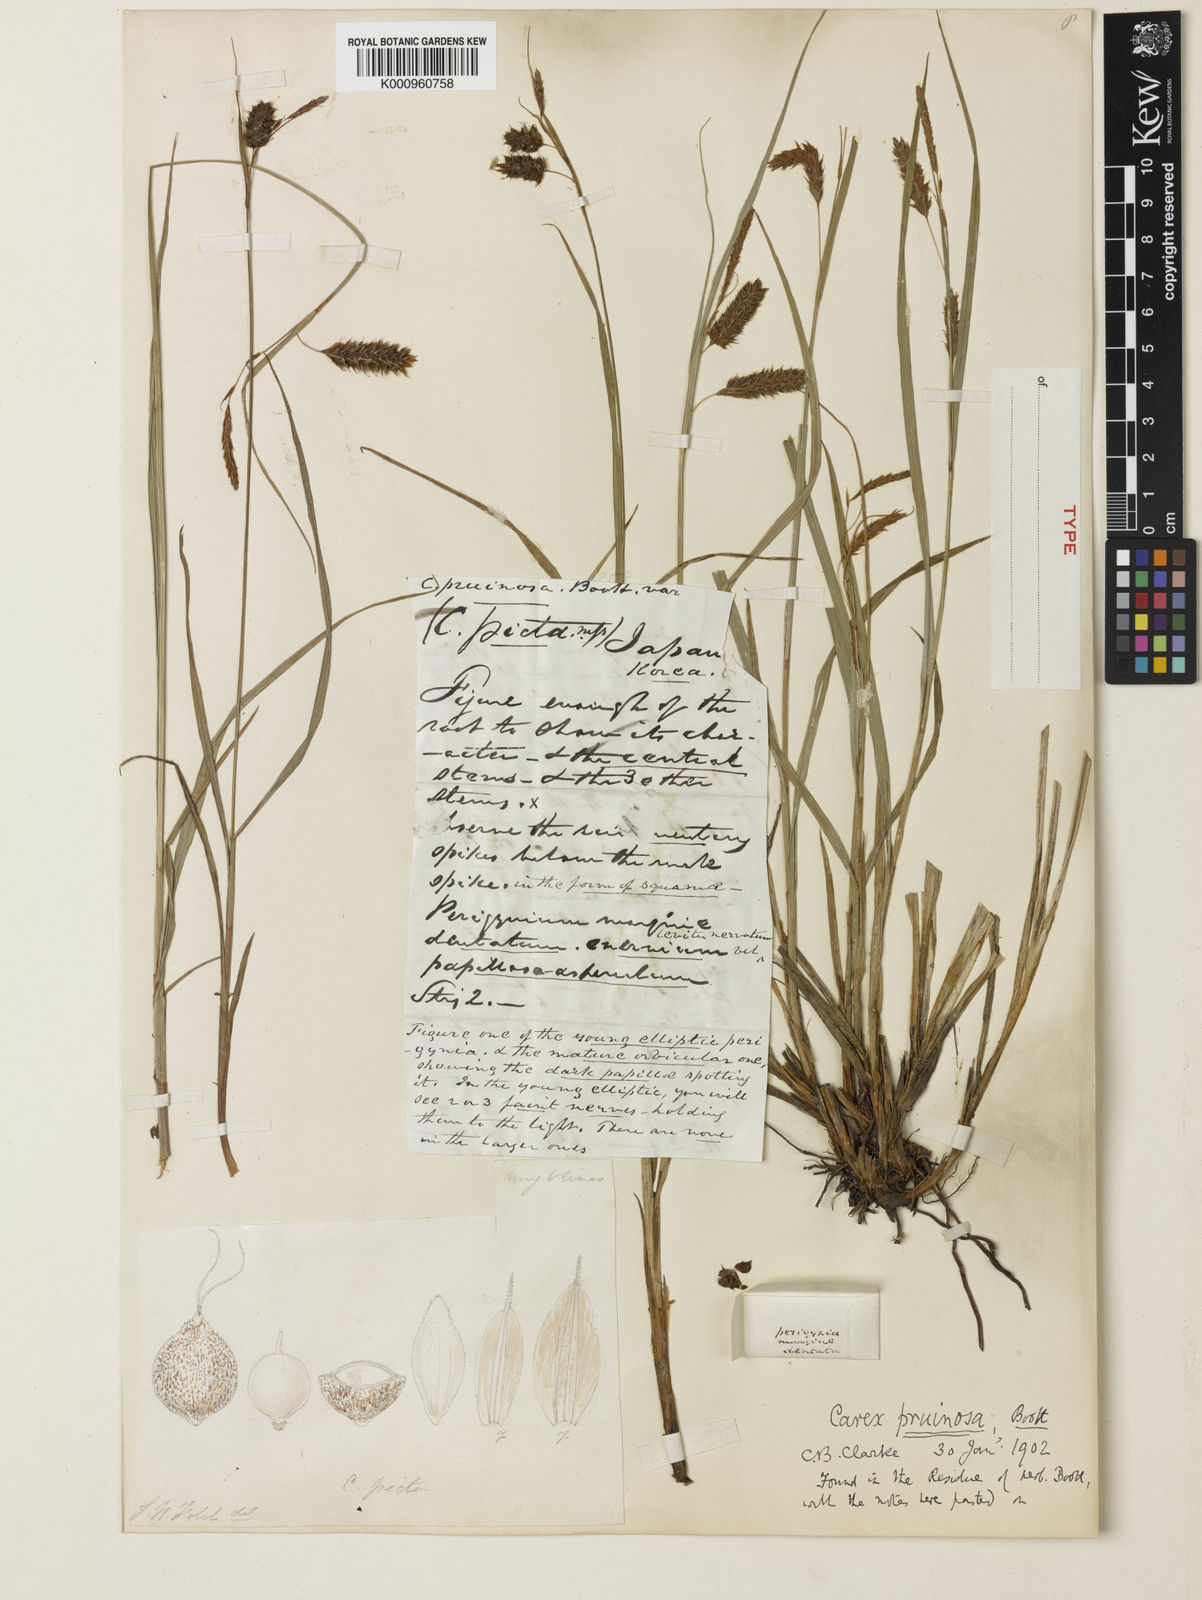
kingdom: Plantae
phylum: Tracheophyta
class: Liliopsida
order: Poales
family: Cyperaceae
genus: Carex
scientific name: Carex pruinosa
